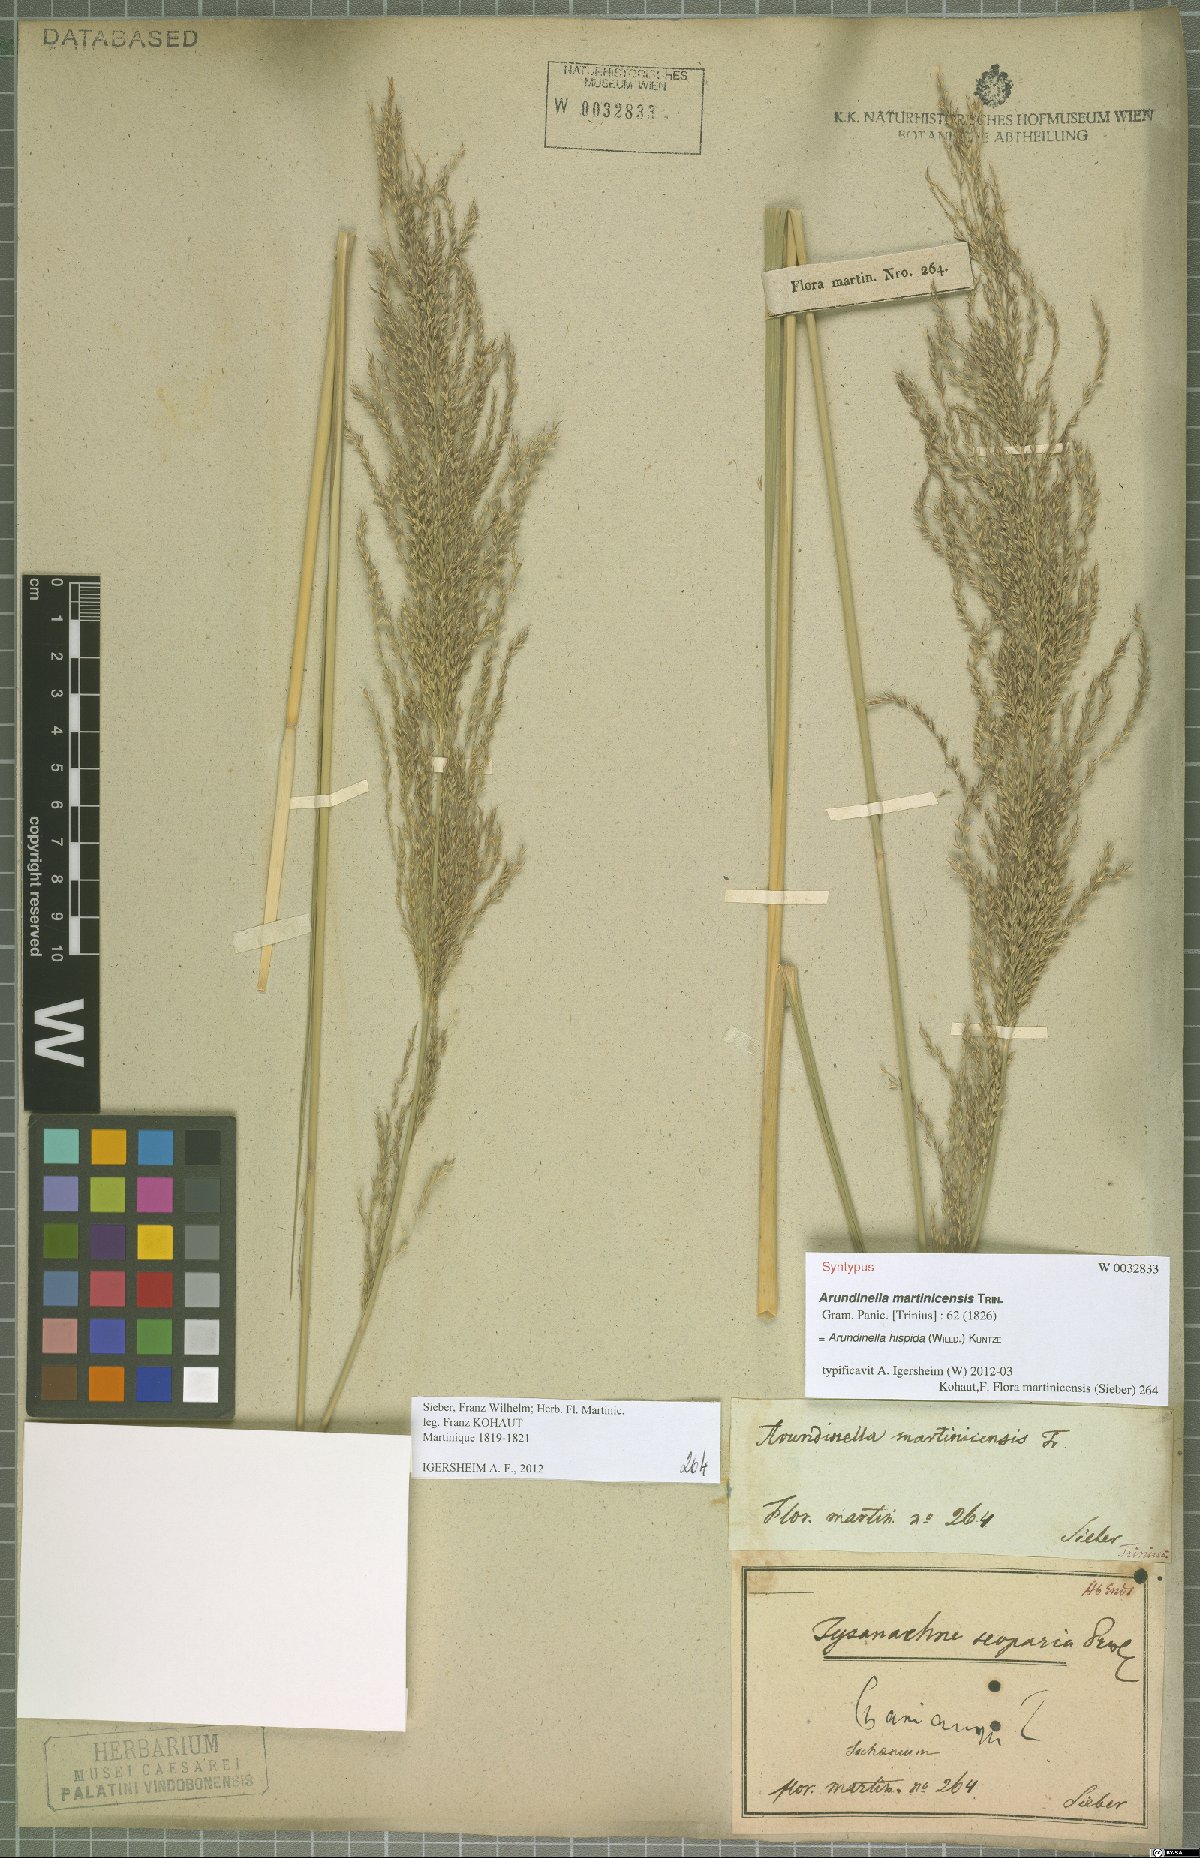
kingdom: Plantae
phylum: Tracheophyta
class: Liliopsida
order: Poales
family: Poaceae
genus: Arundinella
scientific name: Arundinella hispida
